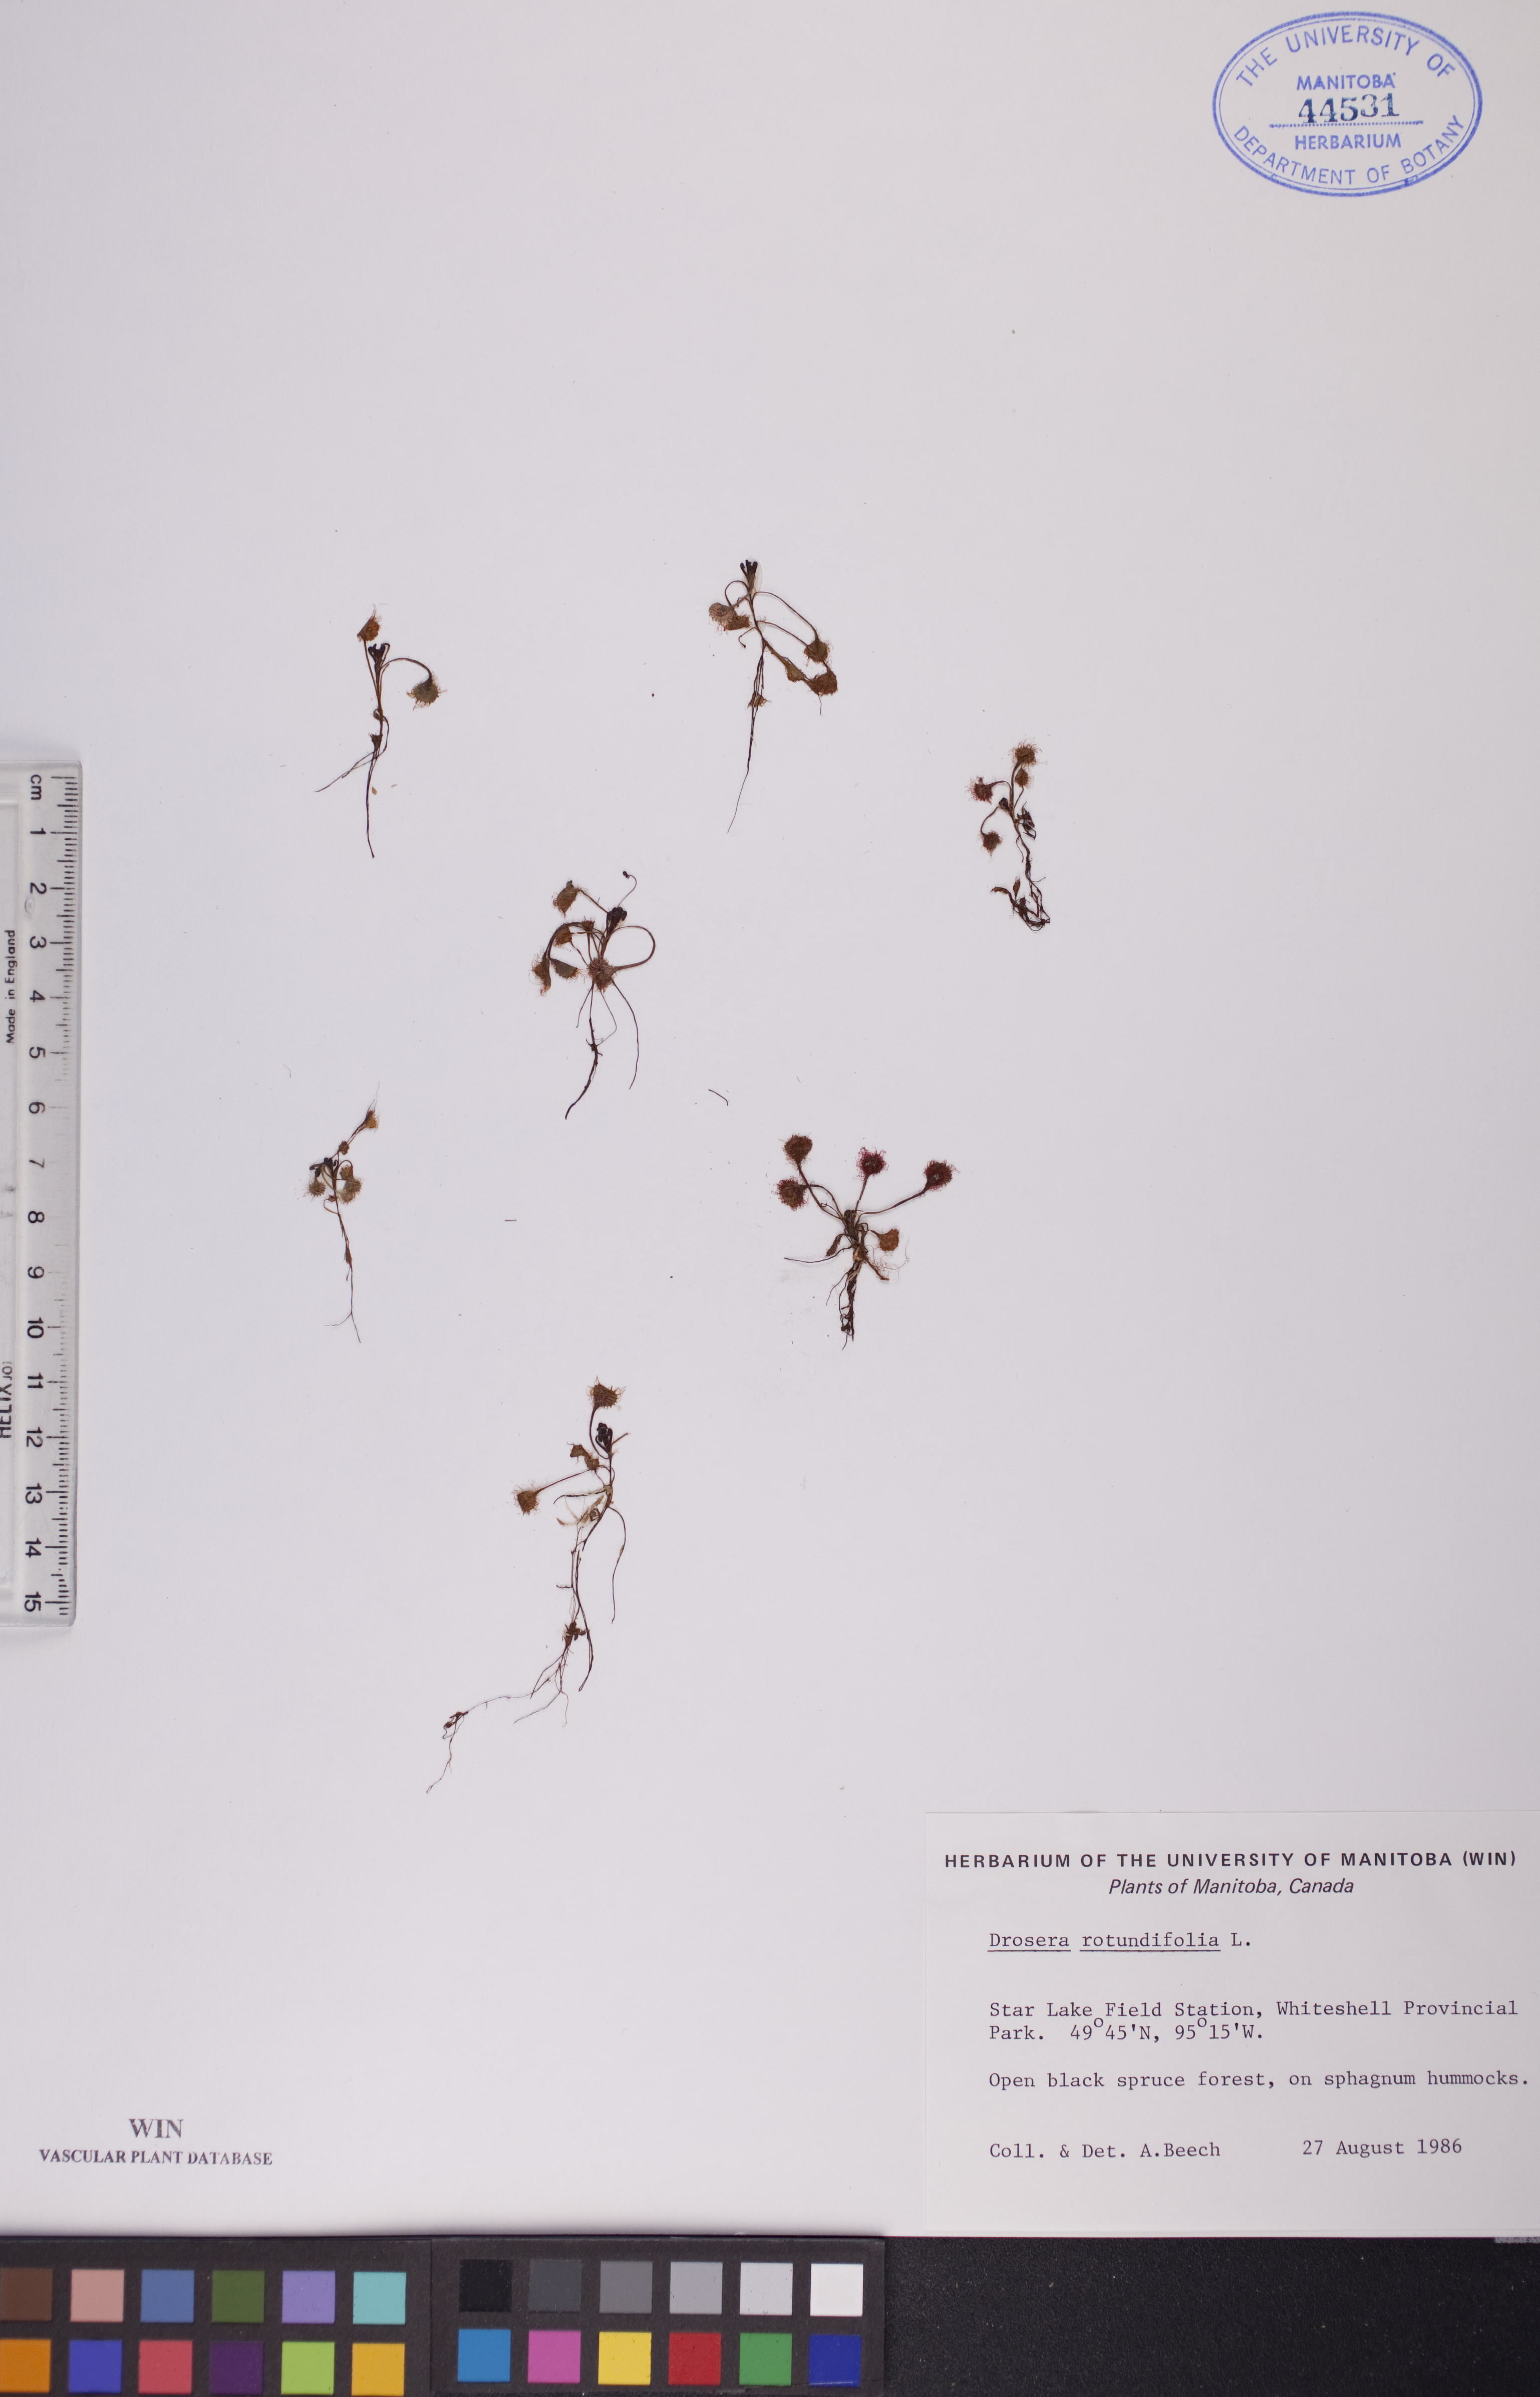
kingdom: Plantae
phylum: Tracheophyta
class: Magnoliopsida
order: Caryophyllales
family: Droseraceae
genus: Drosera
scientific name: Drosera rotundifolia
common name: Round-leaved sundew
